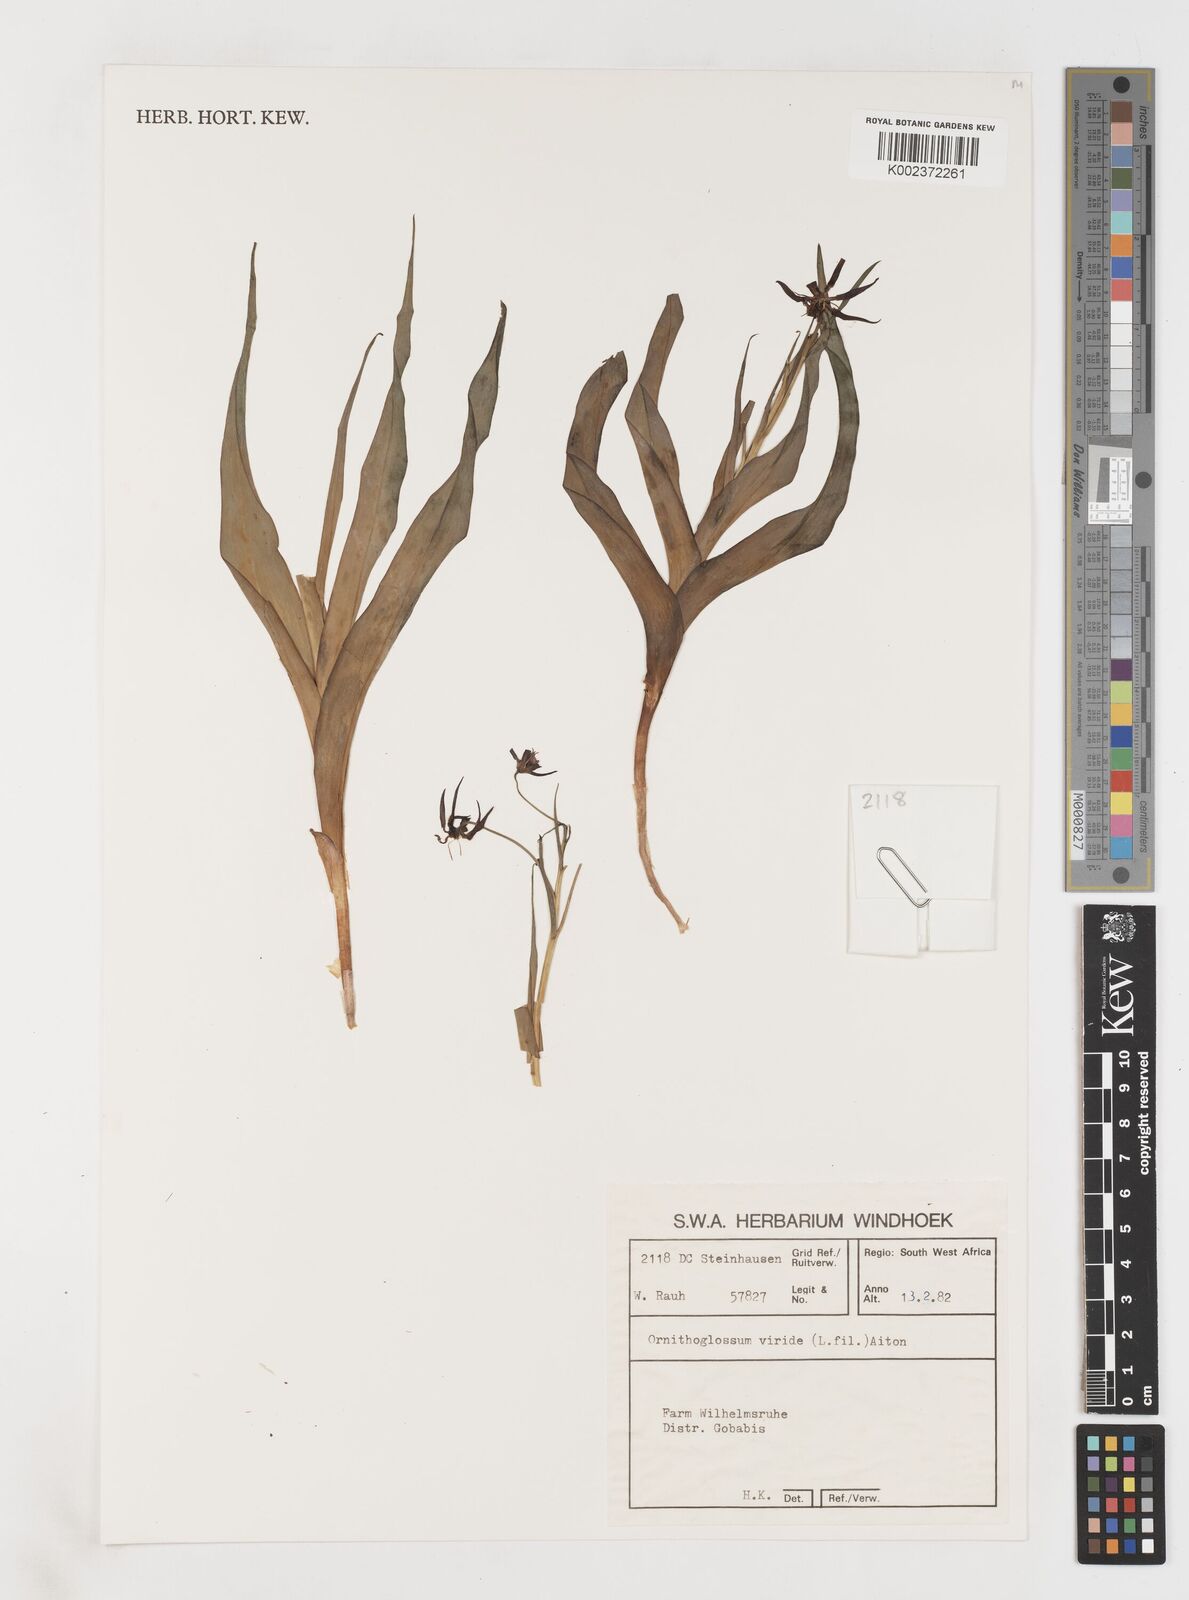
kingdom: Plantae
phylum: Tracheophyta
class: Liliopsida
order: Liliales
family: Colchicaceae
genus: Ornithoglossum
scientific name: Ornithoglossum viride
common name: Cape poison-onion
